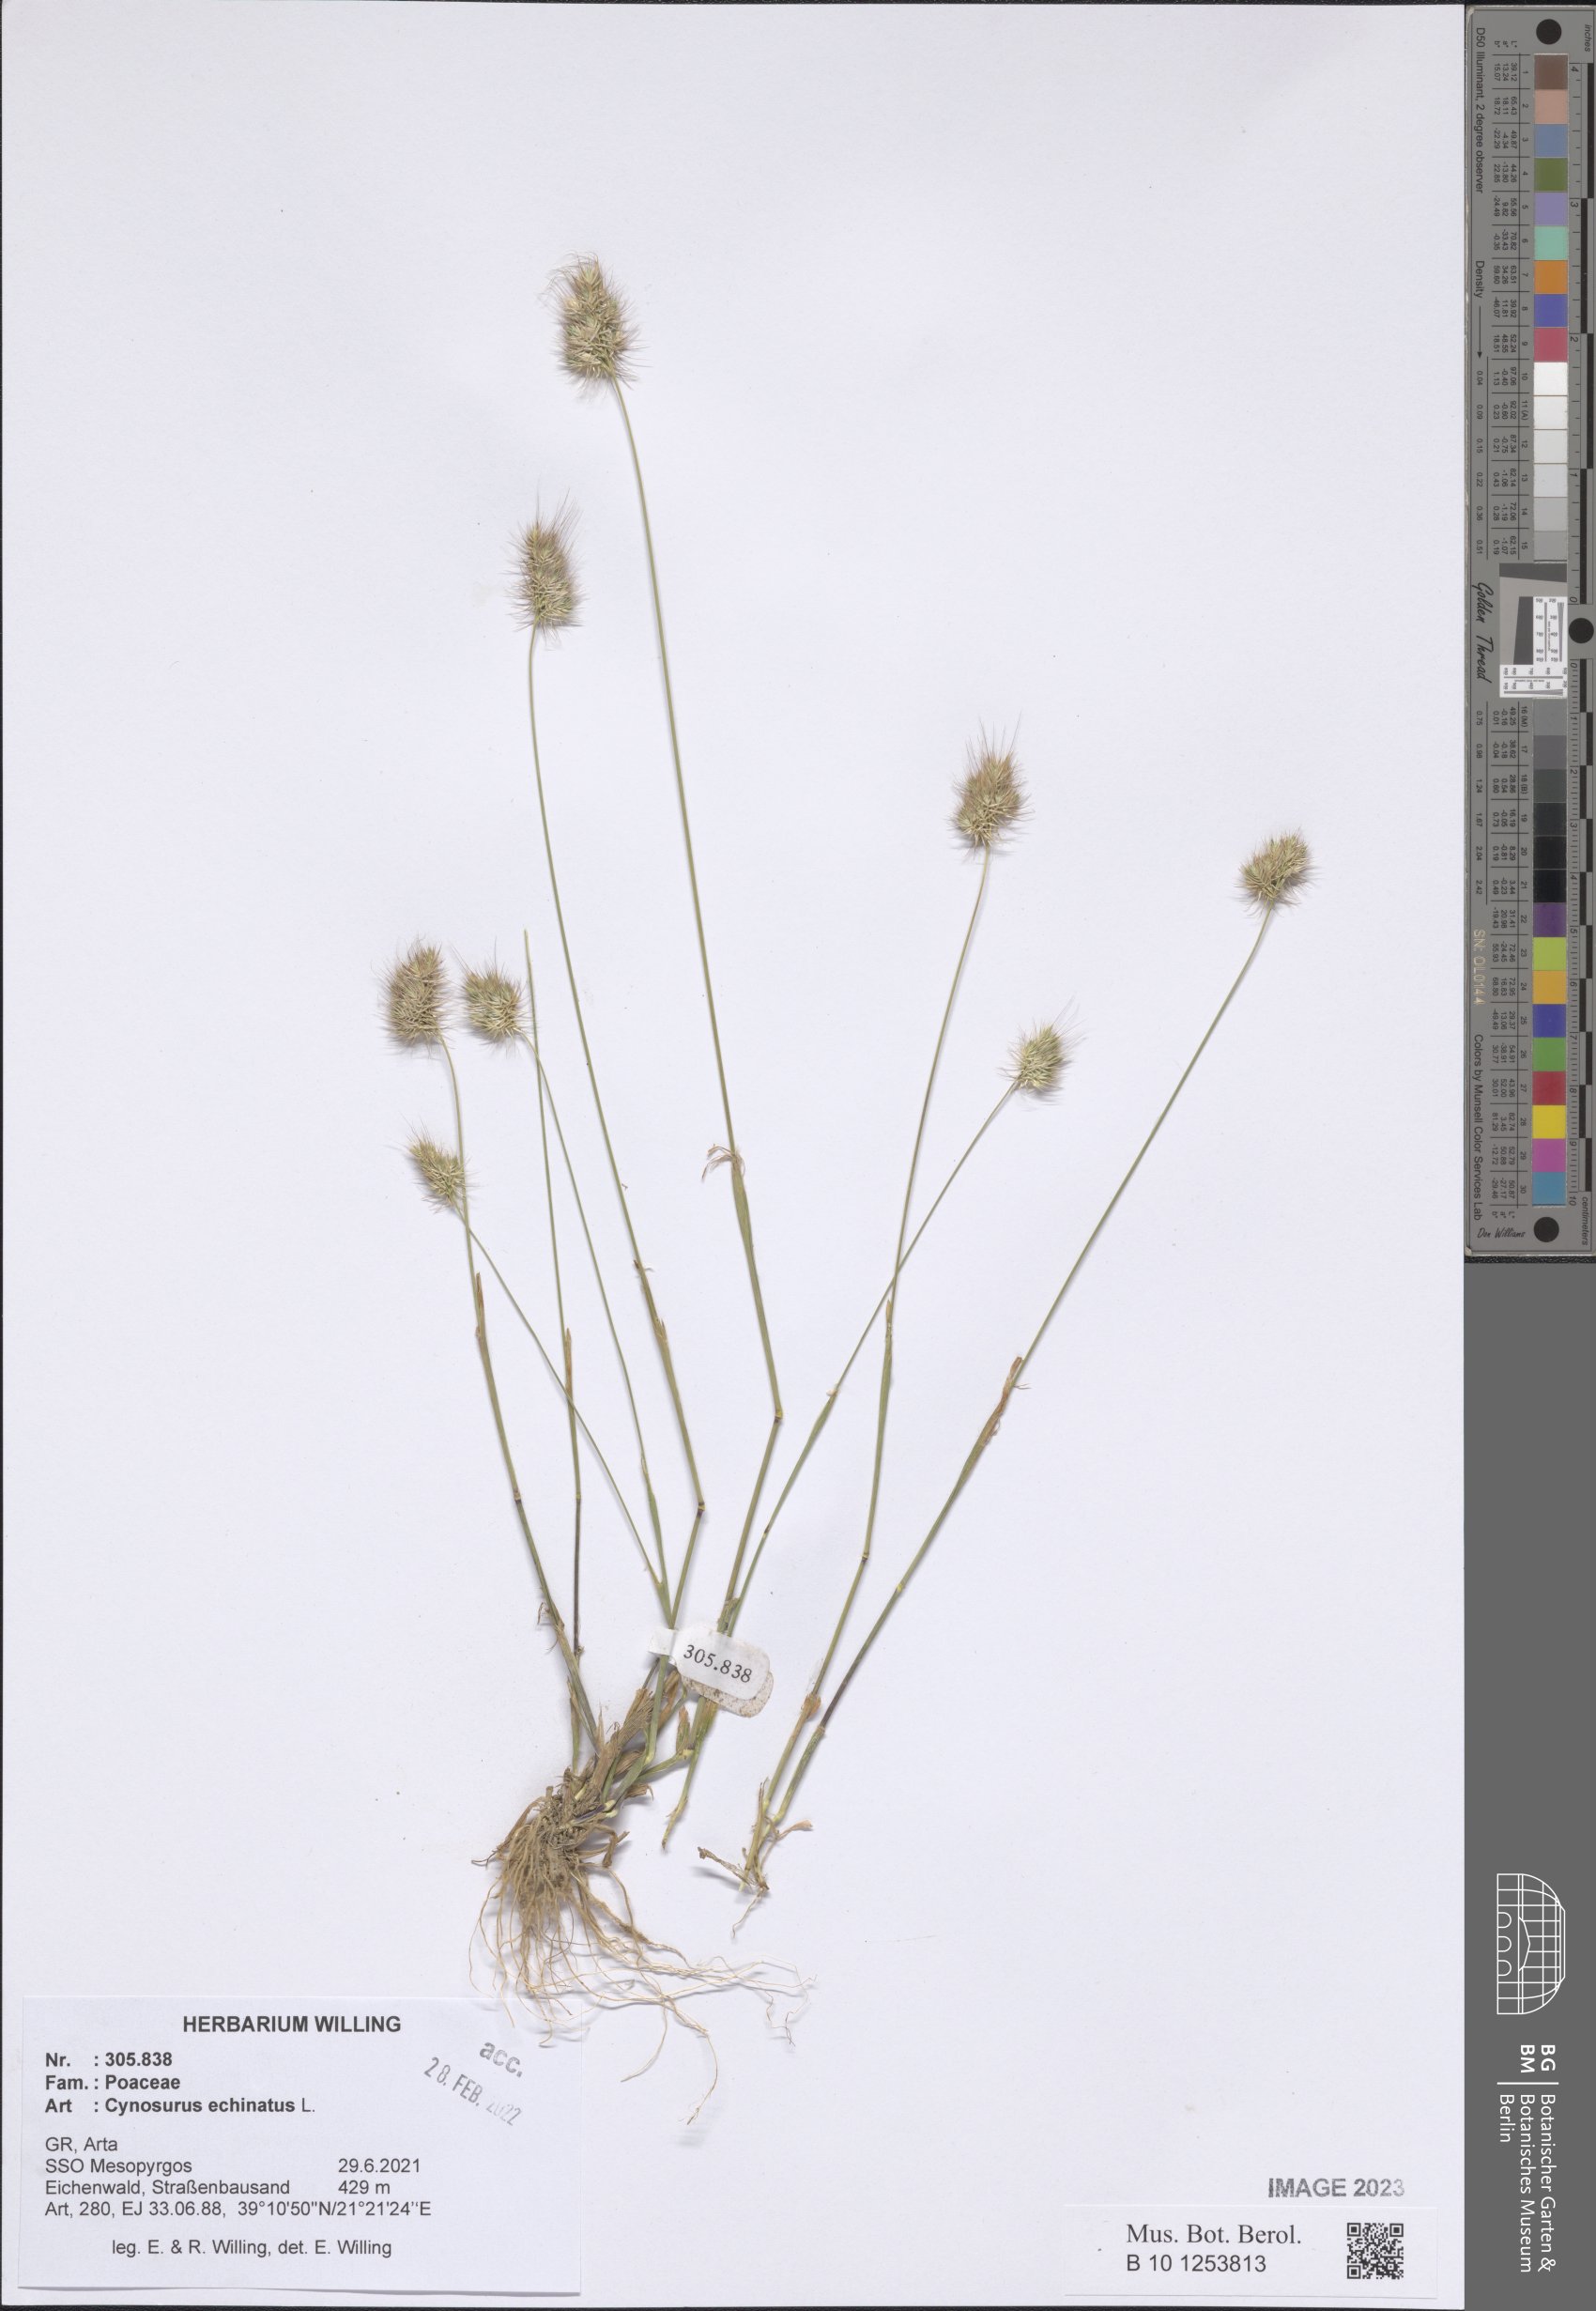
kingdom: Plantae
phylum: Tracheophyta
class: Liliopsida
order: Poales
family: Poaceae
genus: Cynosurus
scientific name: Cynosurus echinatus
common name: Rough dog's-tail
